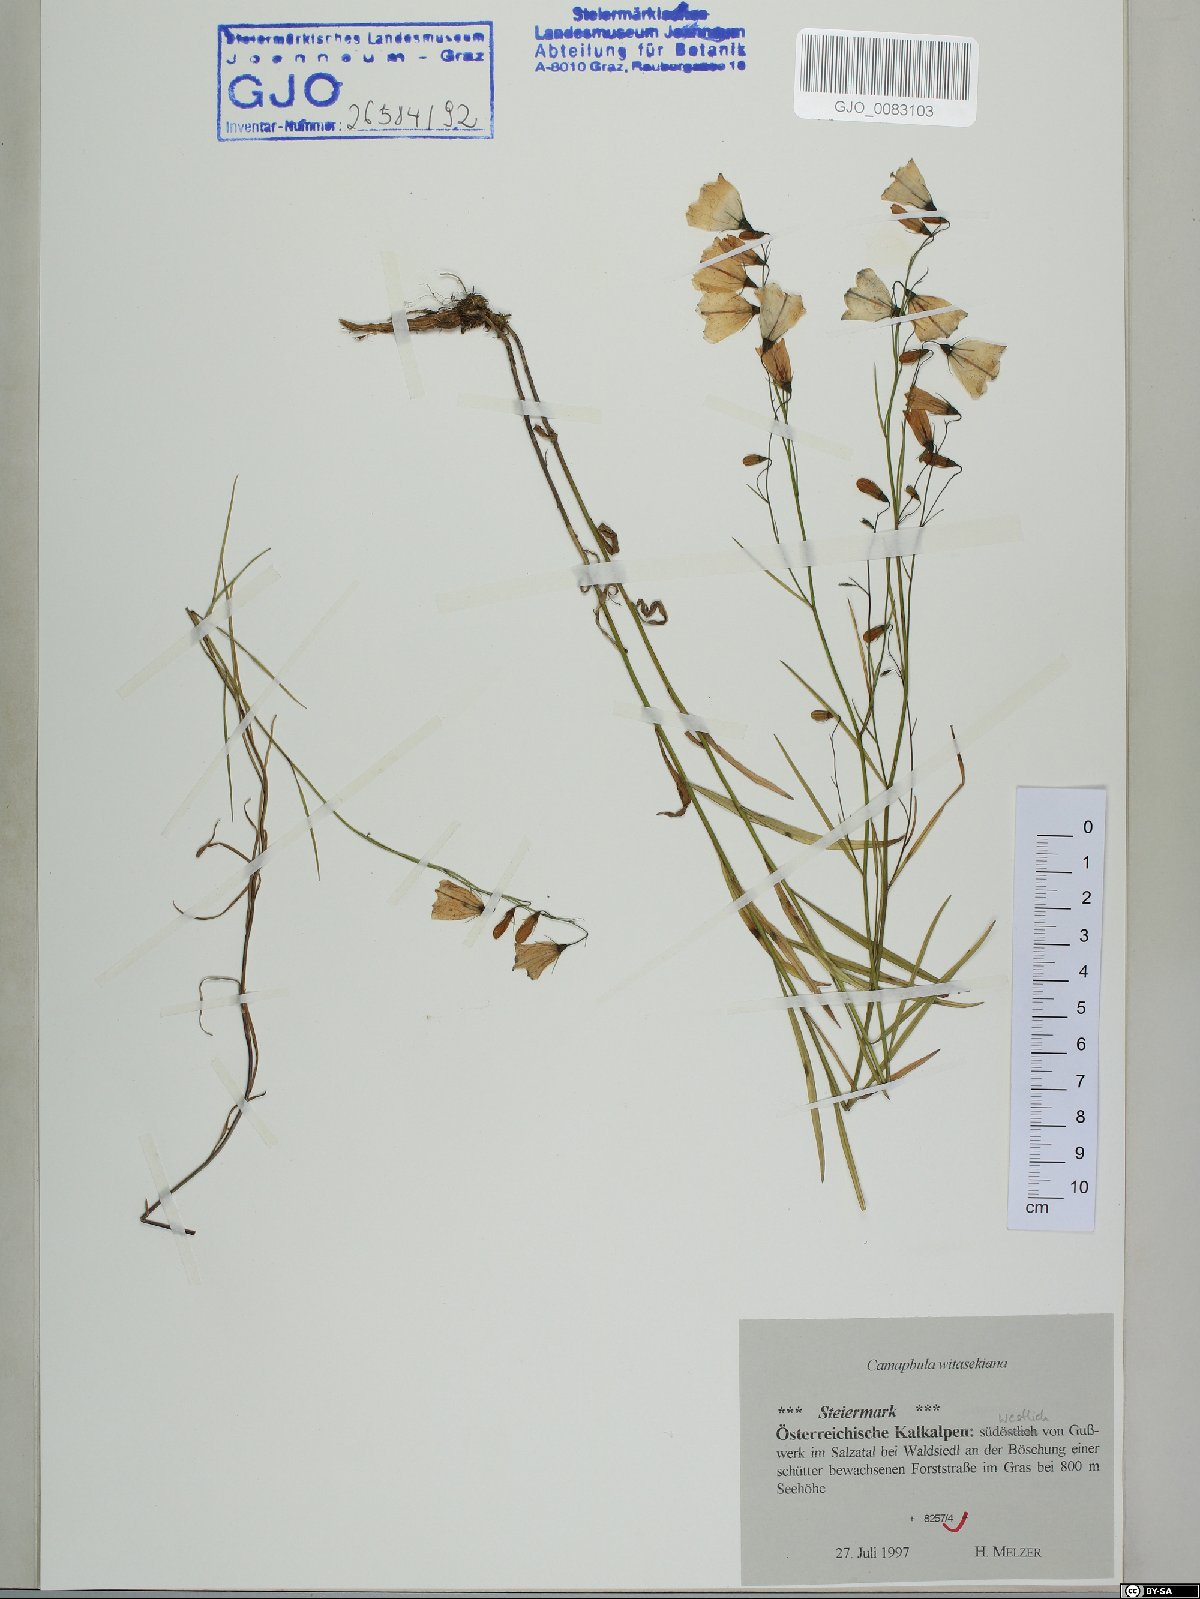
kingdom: Plantae
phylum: Tracheophyta
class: Magnoliopsida
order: Asterales
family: Campanulaceae
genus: Campanula
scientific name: Campanula witasekiana
